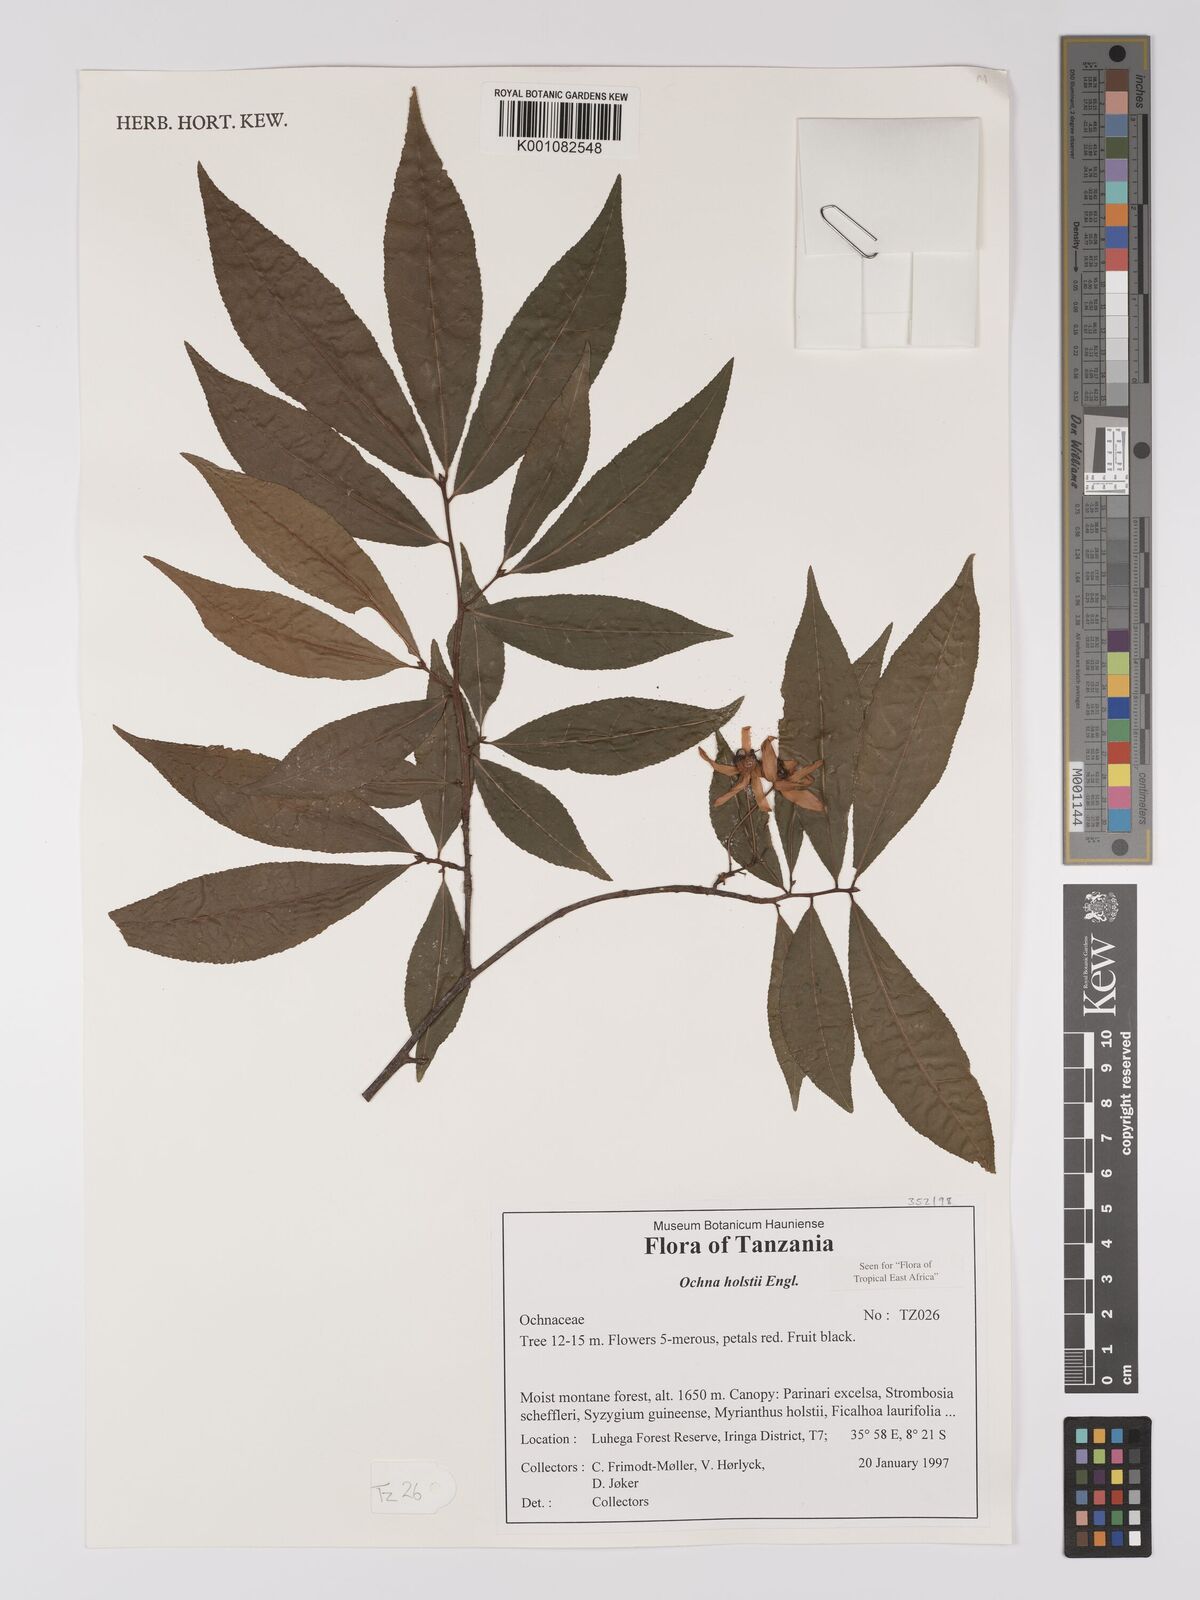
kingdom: Plantae
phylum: Tracheophyta
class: Magnoliopsida
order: Malpighiales
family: Ochnaceae
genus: Ochna
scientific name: Ochna holstii
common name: Red ironwood
